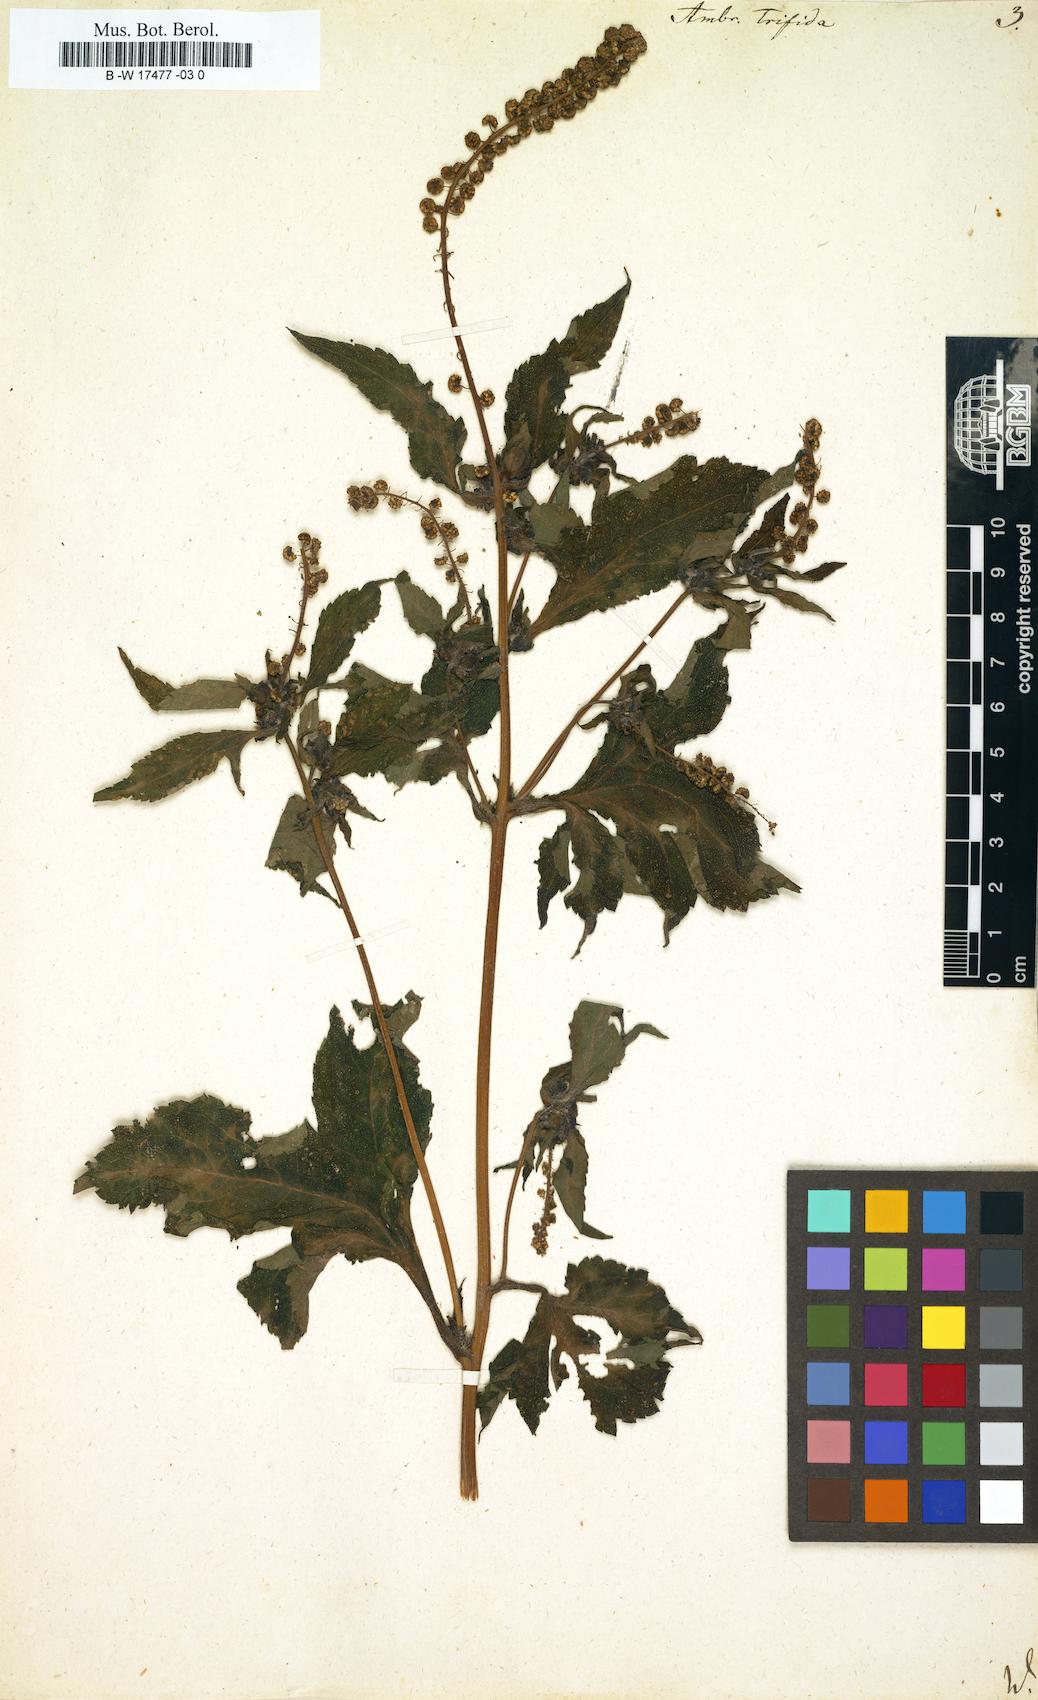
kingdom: Plantae
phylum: Tracheophyta
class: Magnoliopsida
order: Asterales
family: Asteraceae
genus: Ambrosia
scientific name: Ambrosia trifida
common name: Giant ragweed
